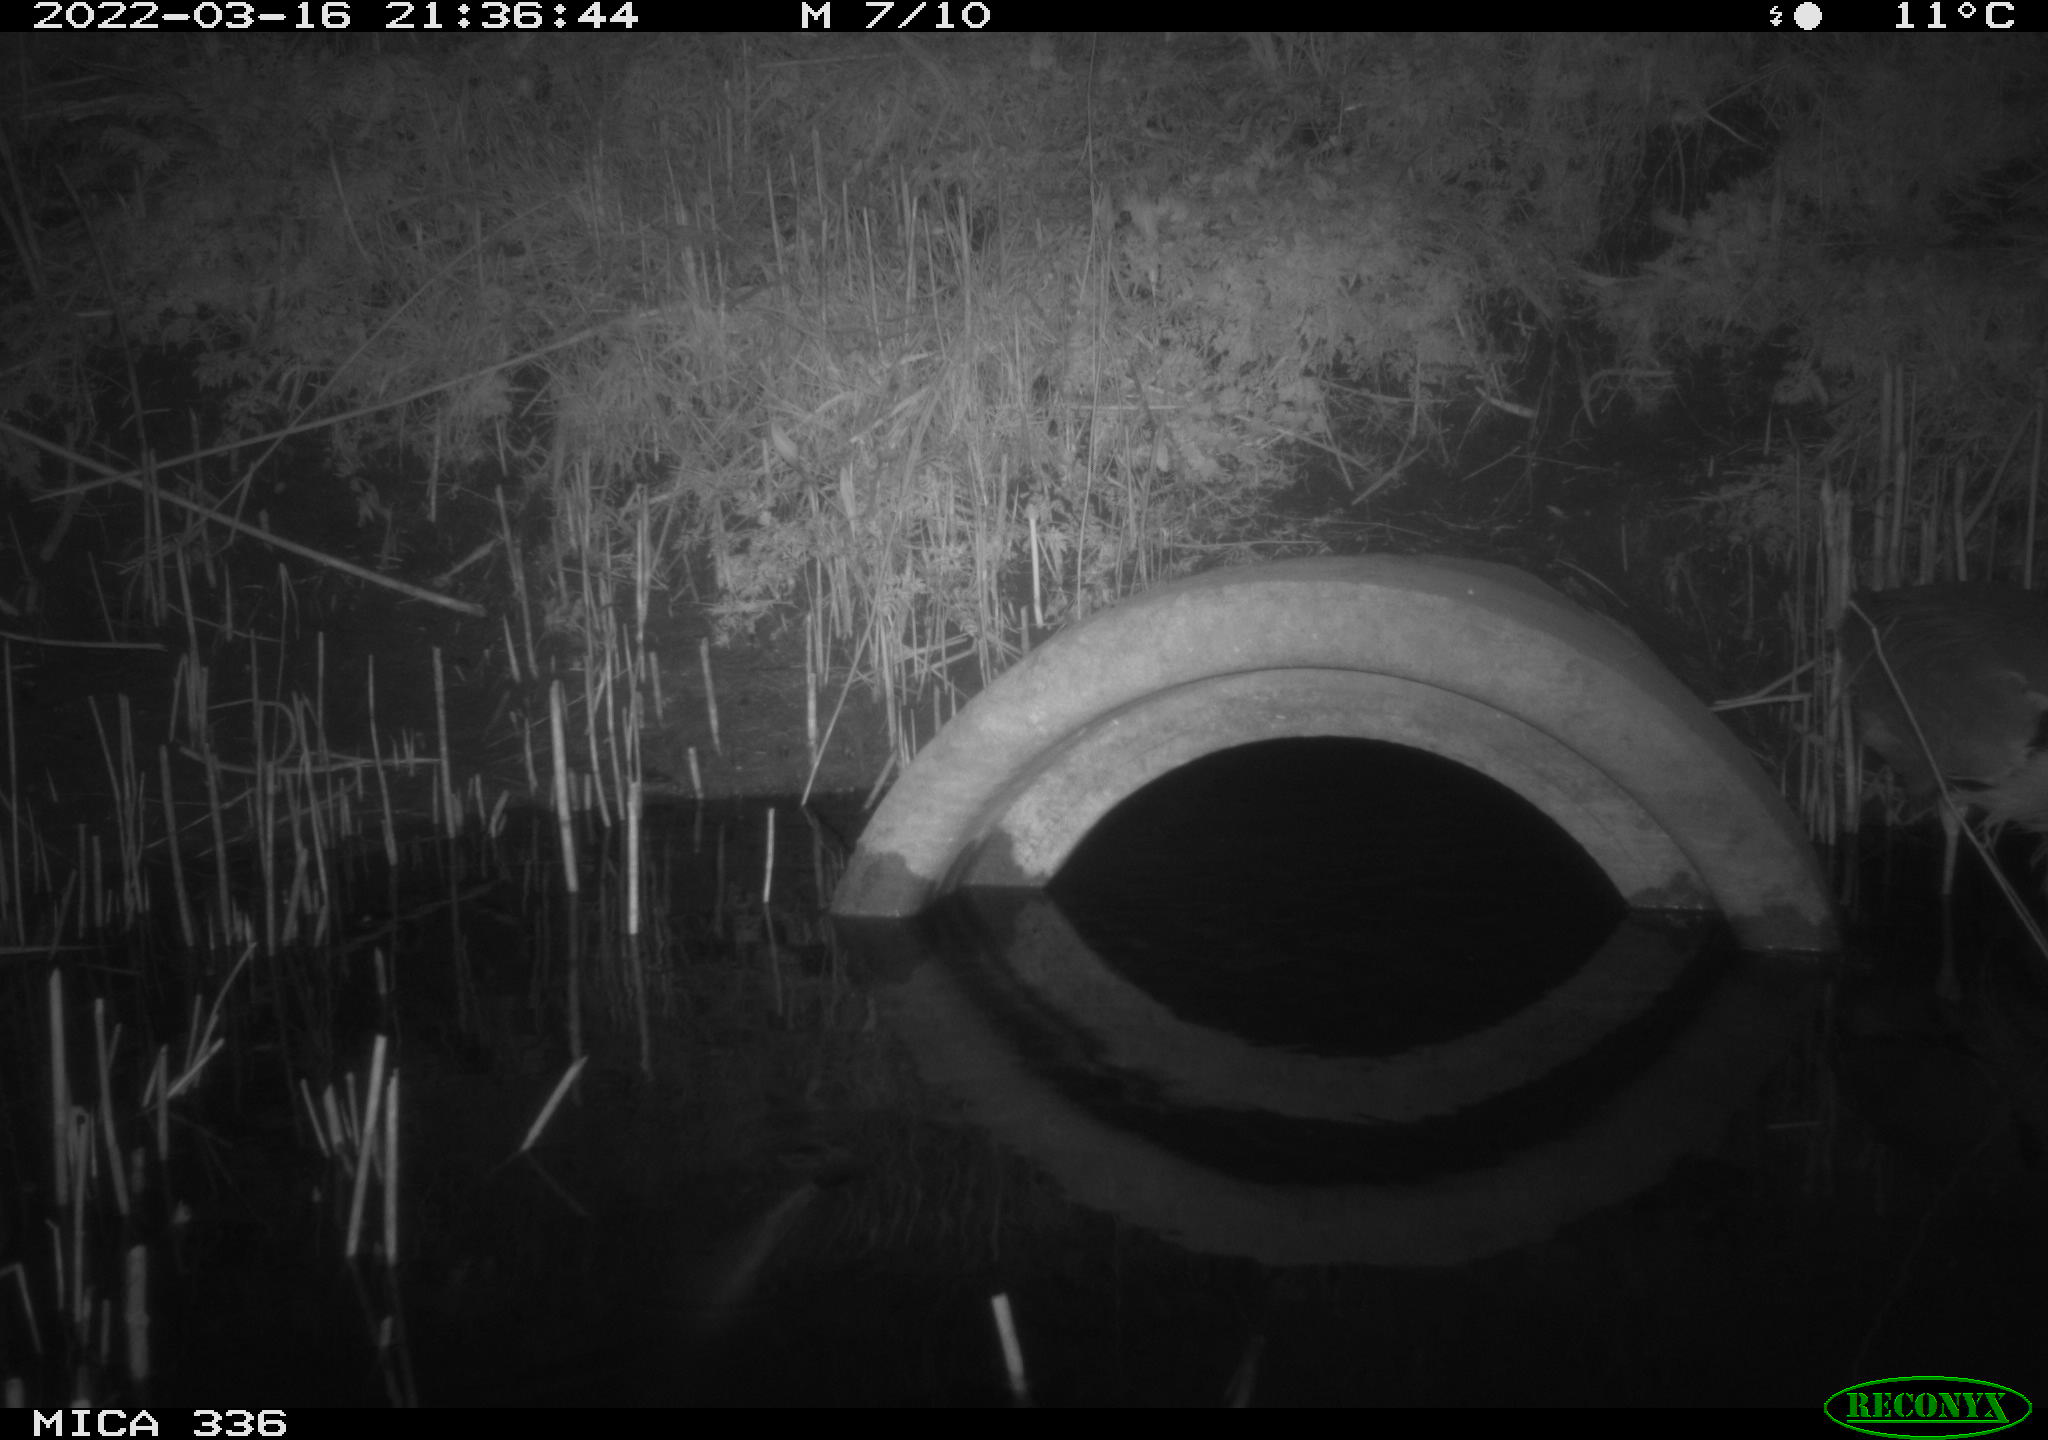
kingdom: Animalia
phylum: Chordata
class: Aves
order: Pelecaniformes
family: Ardeidae
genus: Ardea
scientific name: Ardea cinerea
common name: Grey heron
